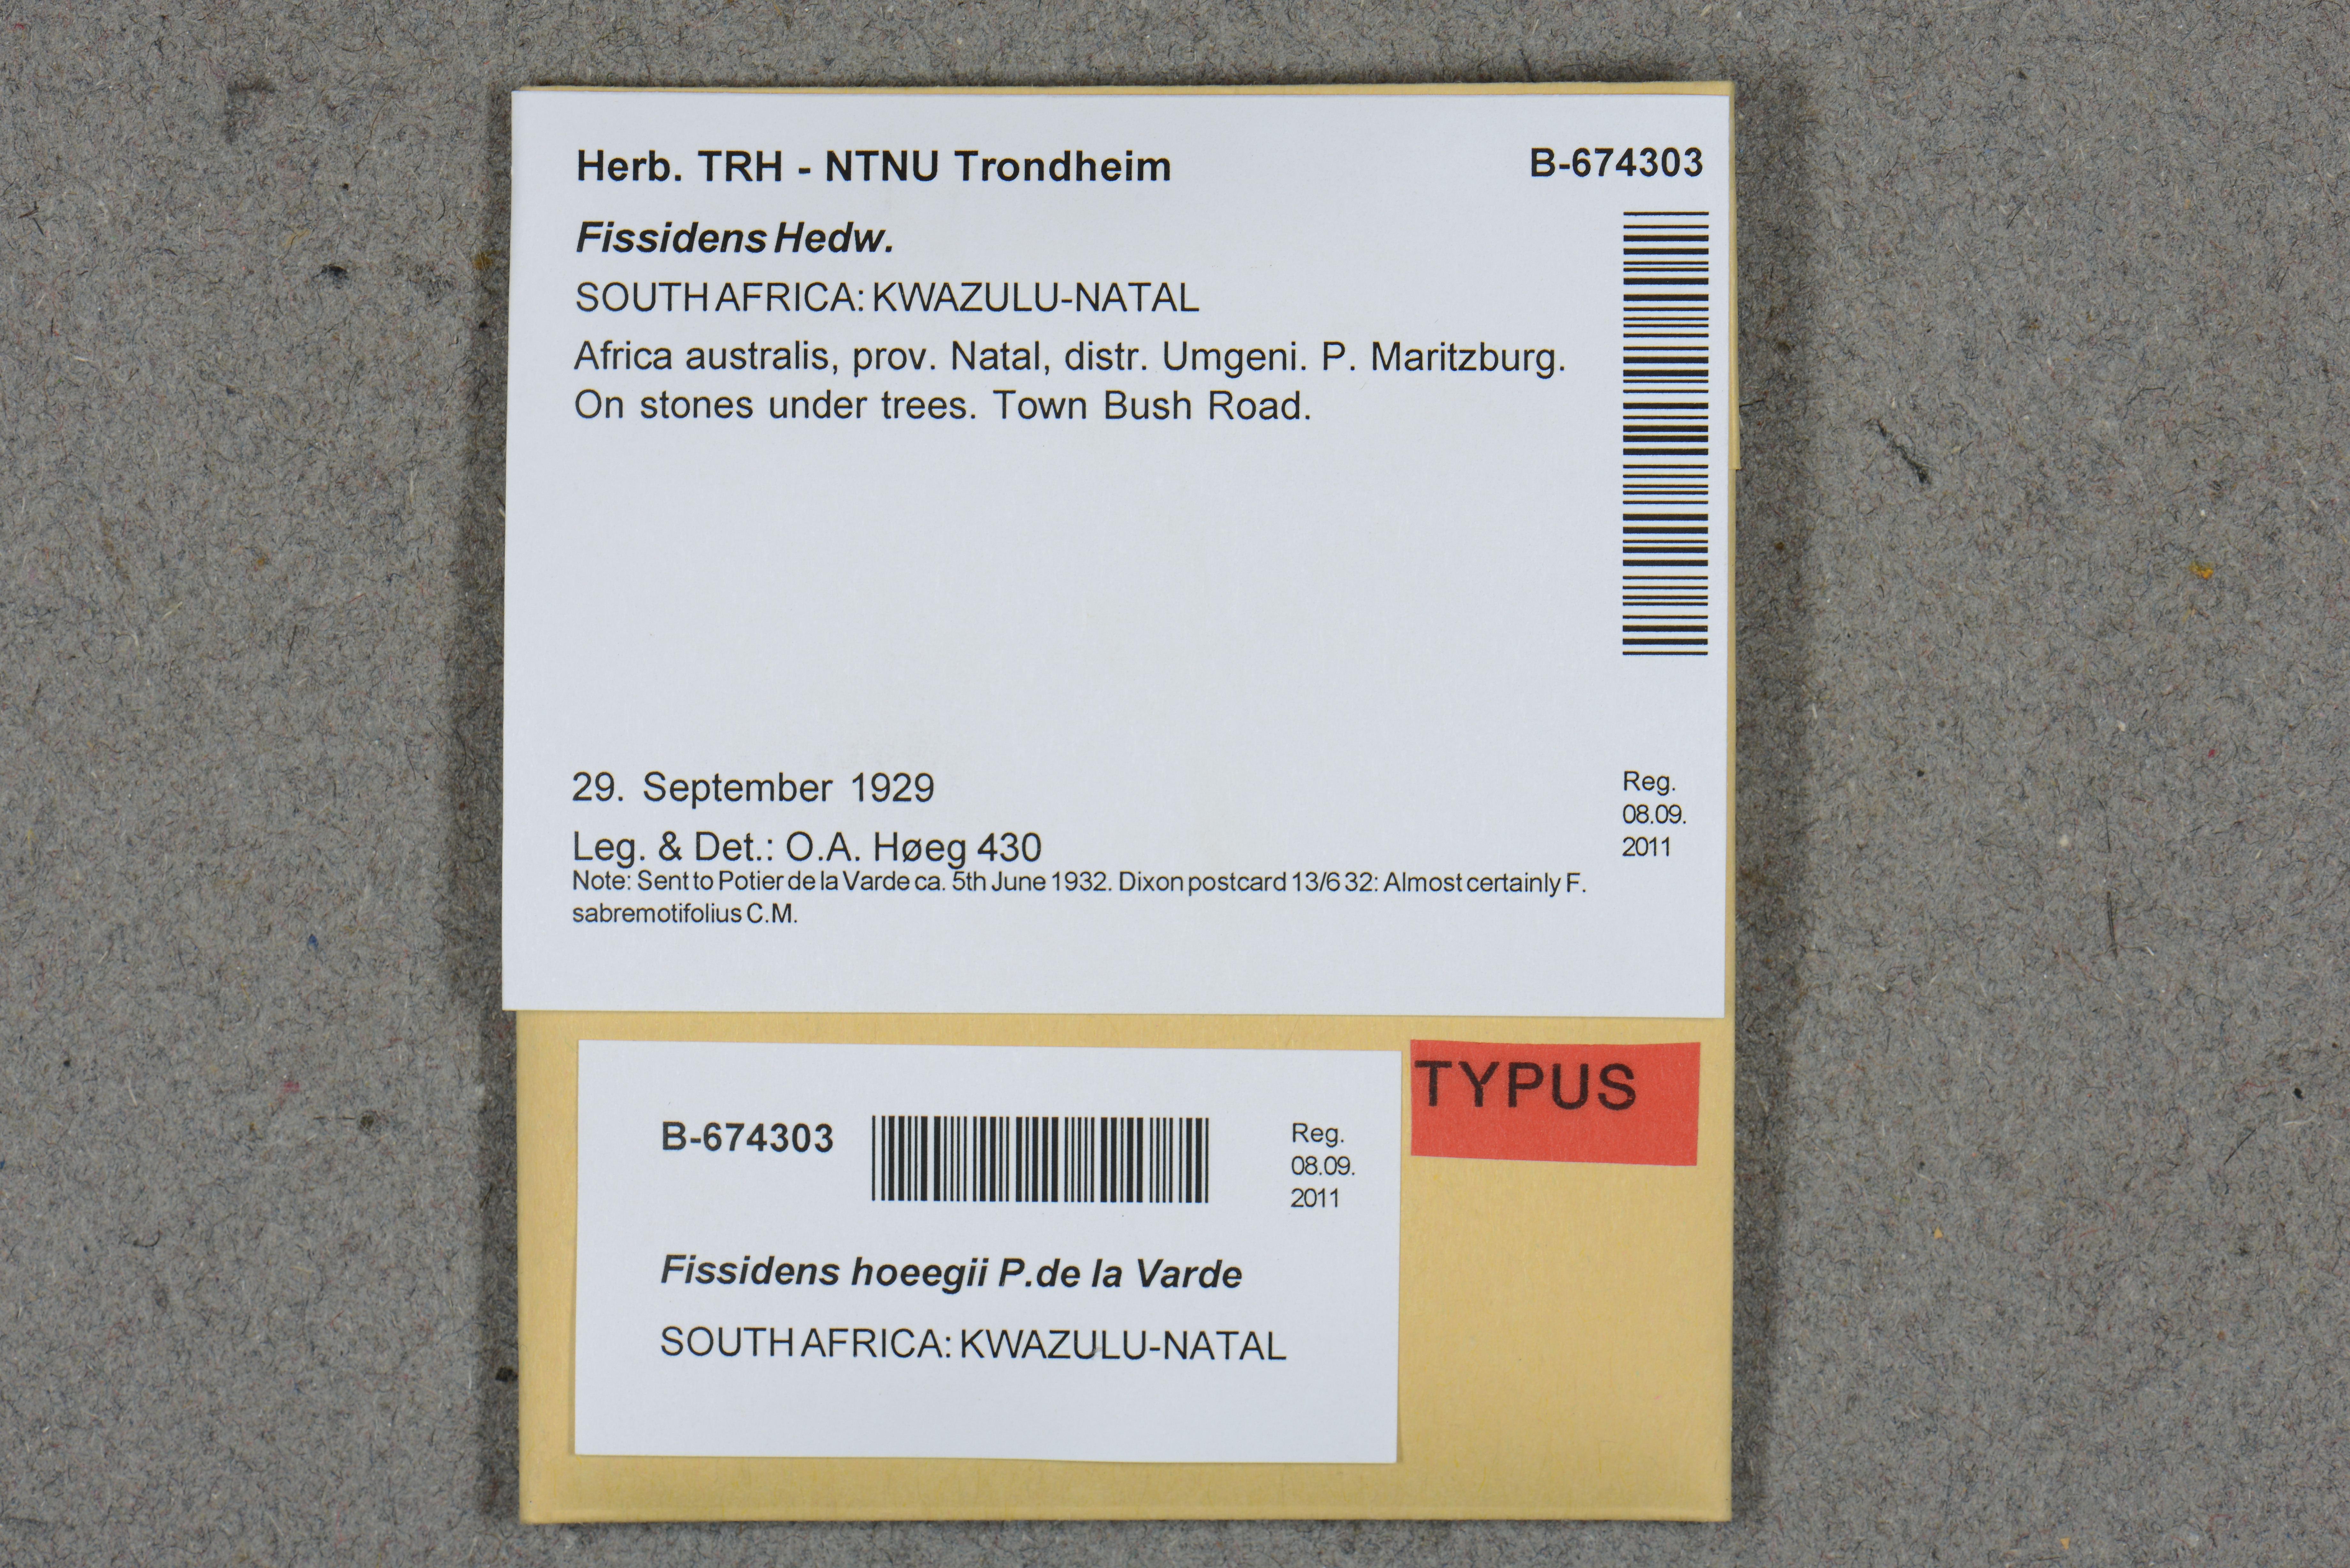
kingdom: Plantae
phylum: Bryophyta
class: Bryopsida
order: Dicranales
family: Fissidentaceae
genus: Fissidens
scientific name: Fissidens crispus
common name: Herzog's pocket-moss
